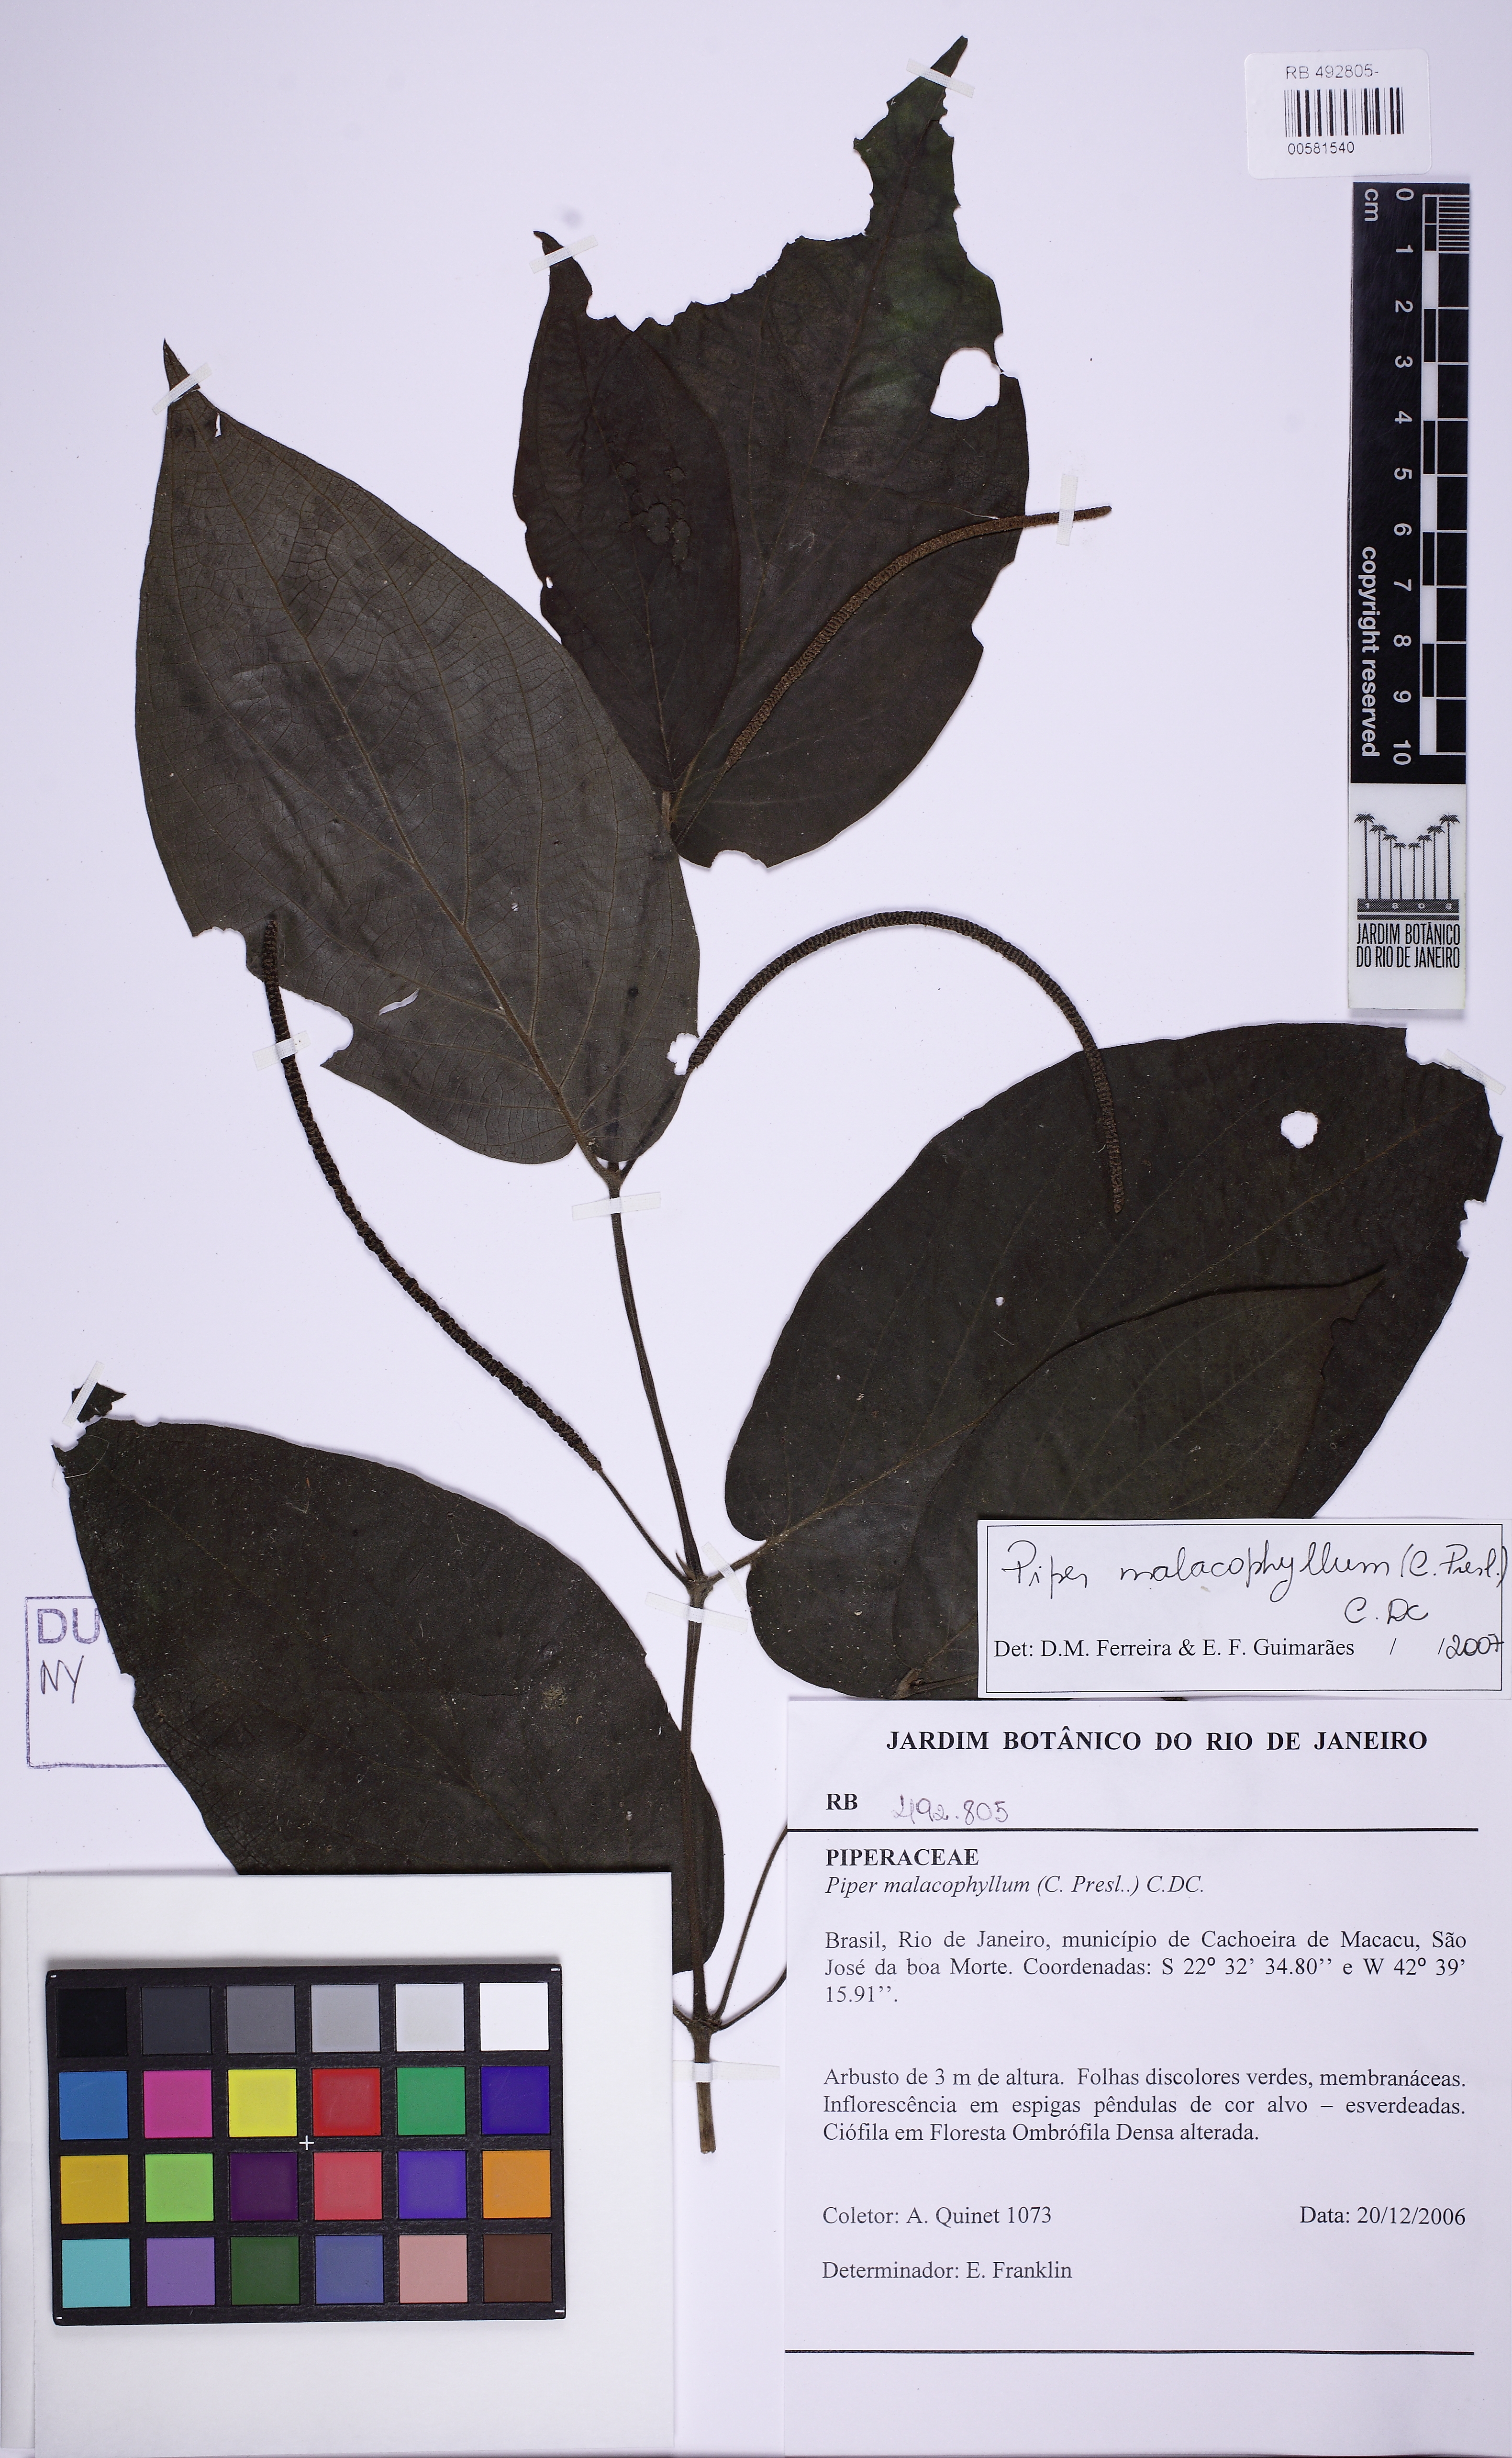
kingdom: Plantae
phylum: Tracheophyta
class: Magnoliopsida
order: Piperales
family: Piperaceae
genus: Piper
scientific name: Piper malacophyllum
